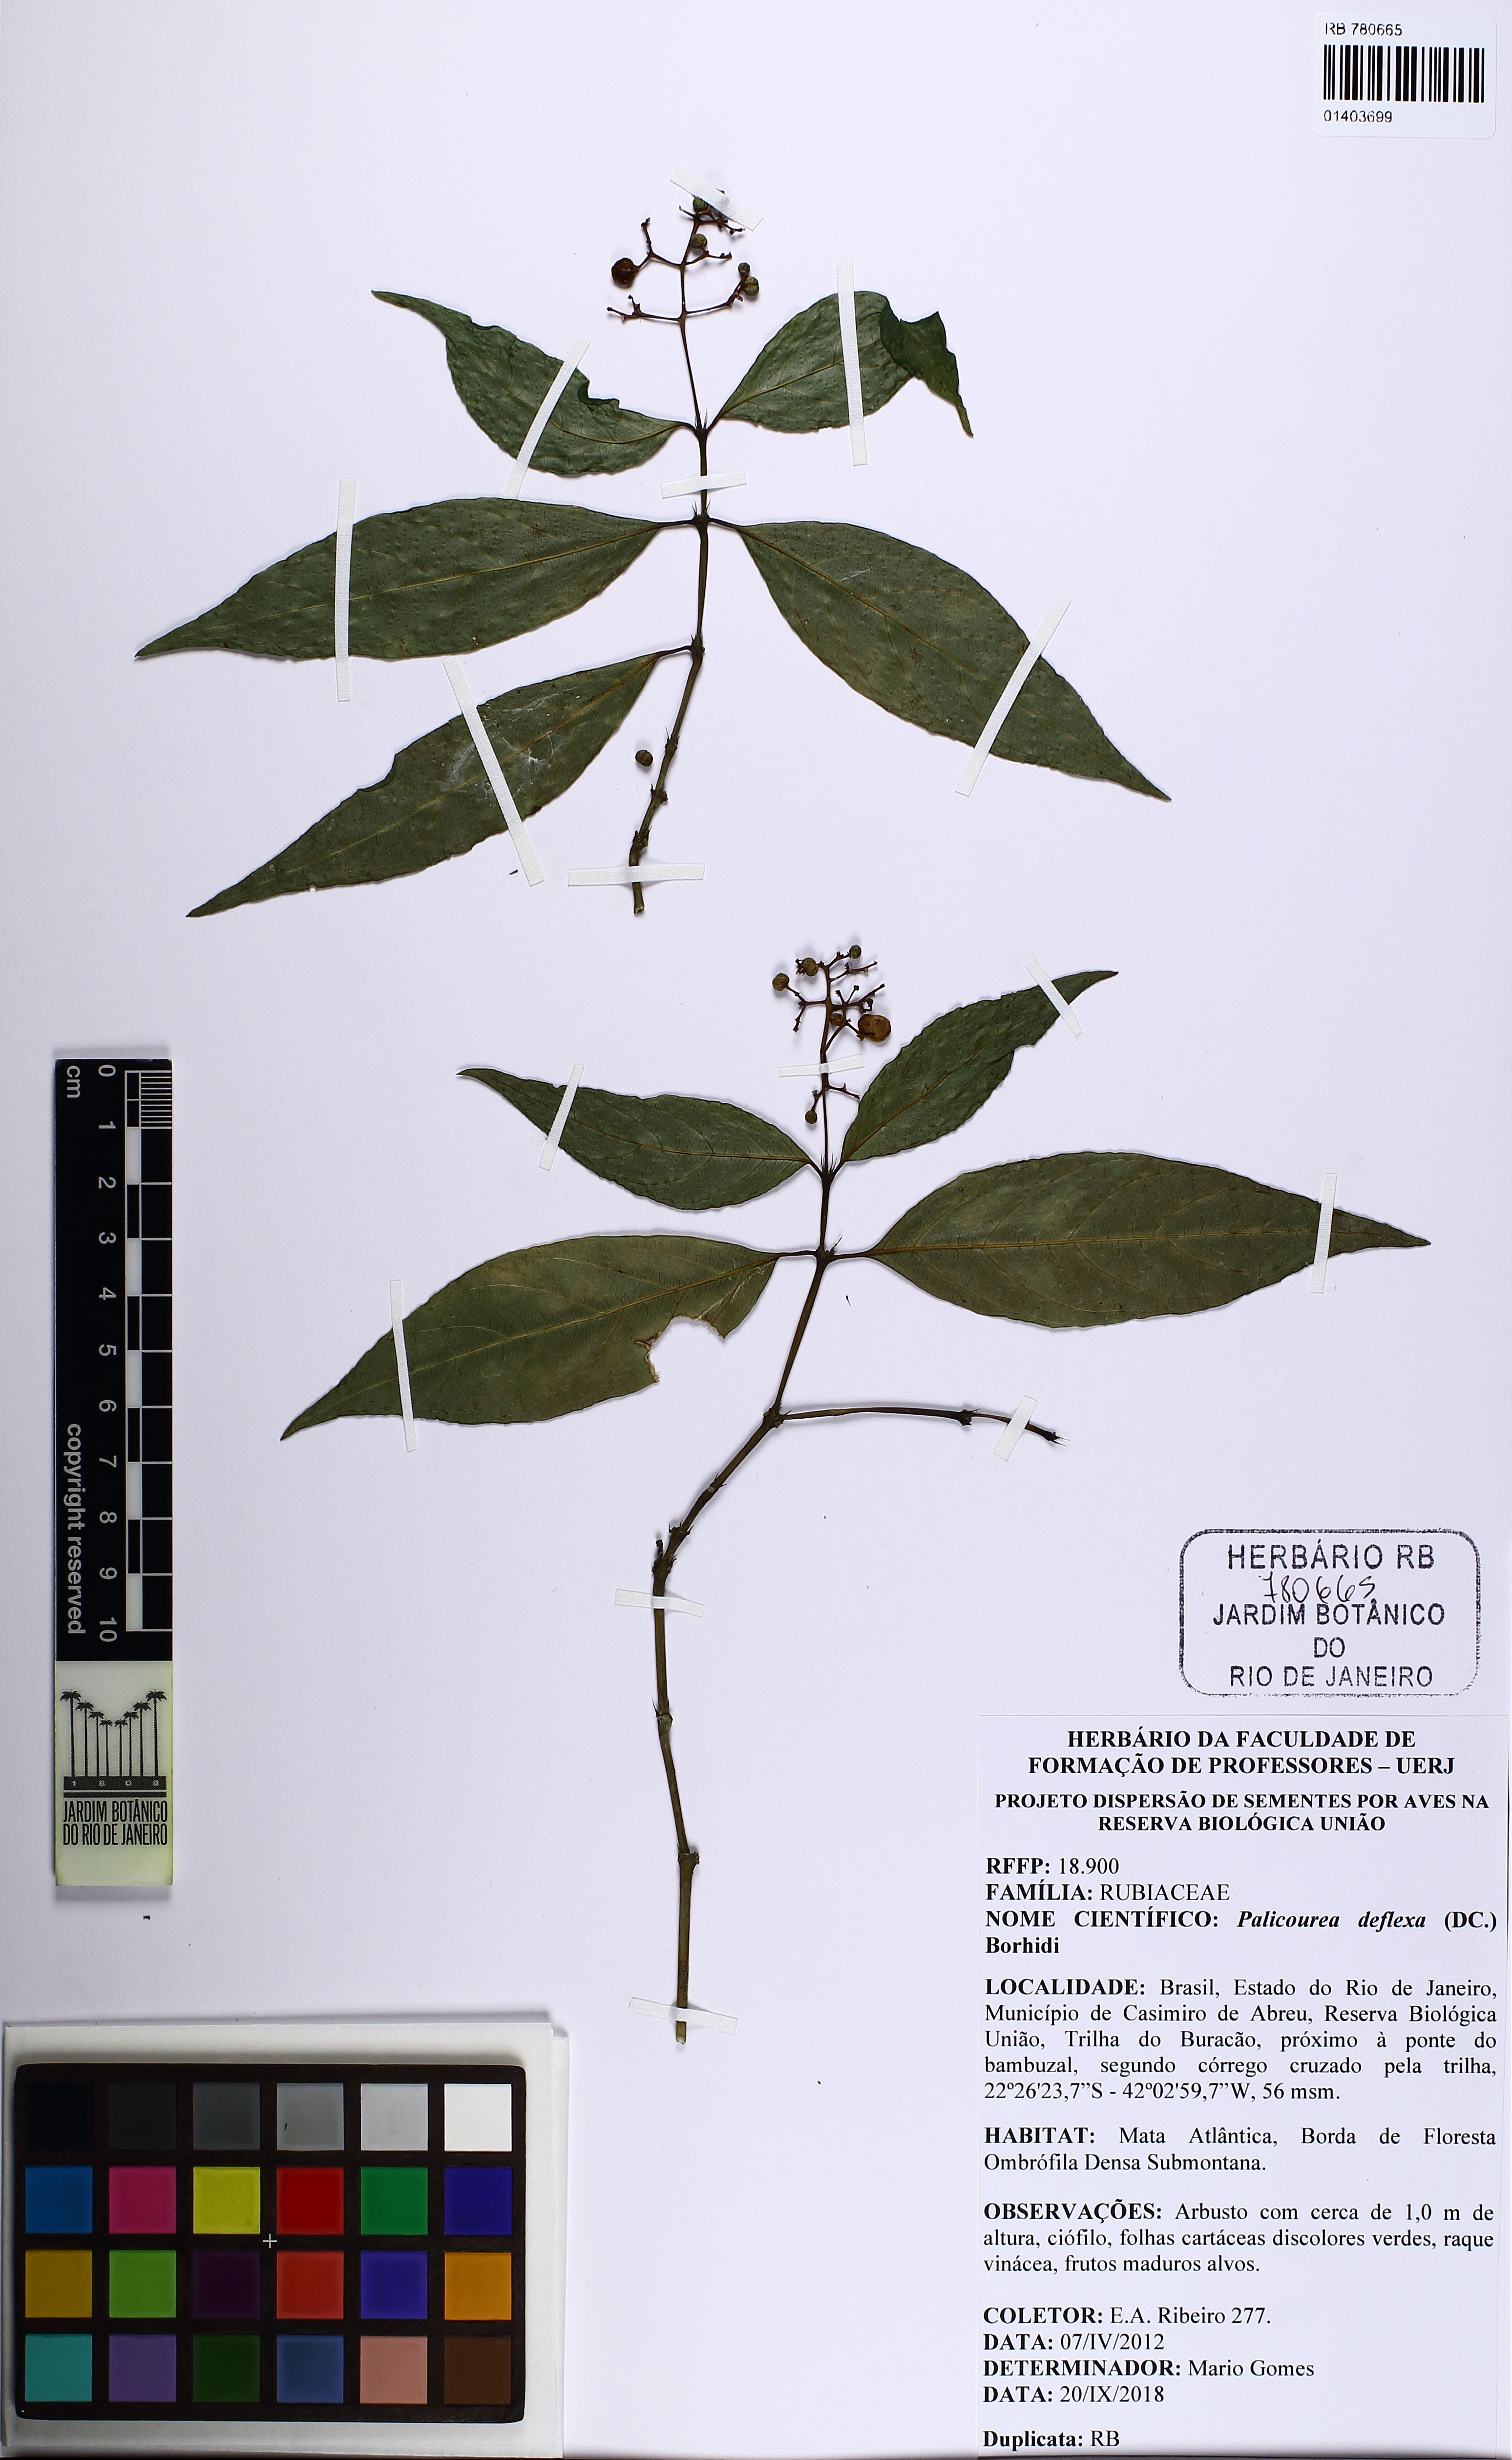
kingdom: Plantae
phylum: Tracheophyta
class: Magnoliopsida
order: Gentianales
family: Rubiaceae
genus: Palicourea
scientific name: Palicourea deflexa
